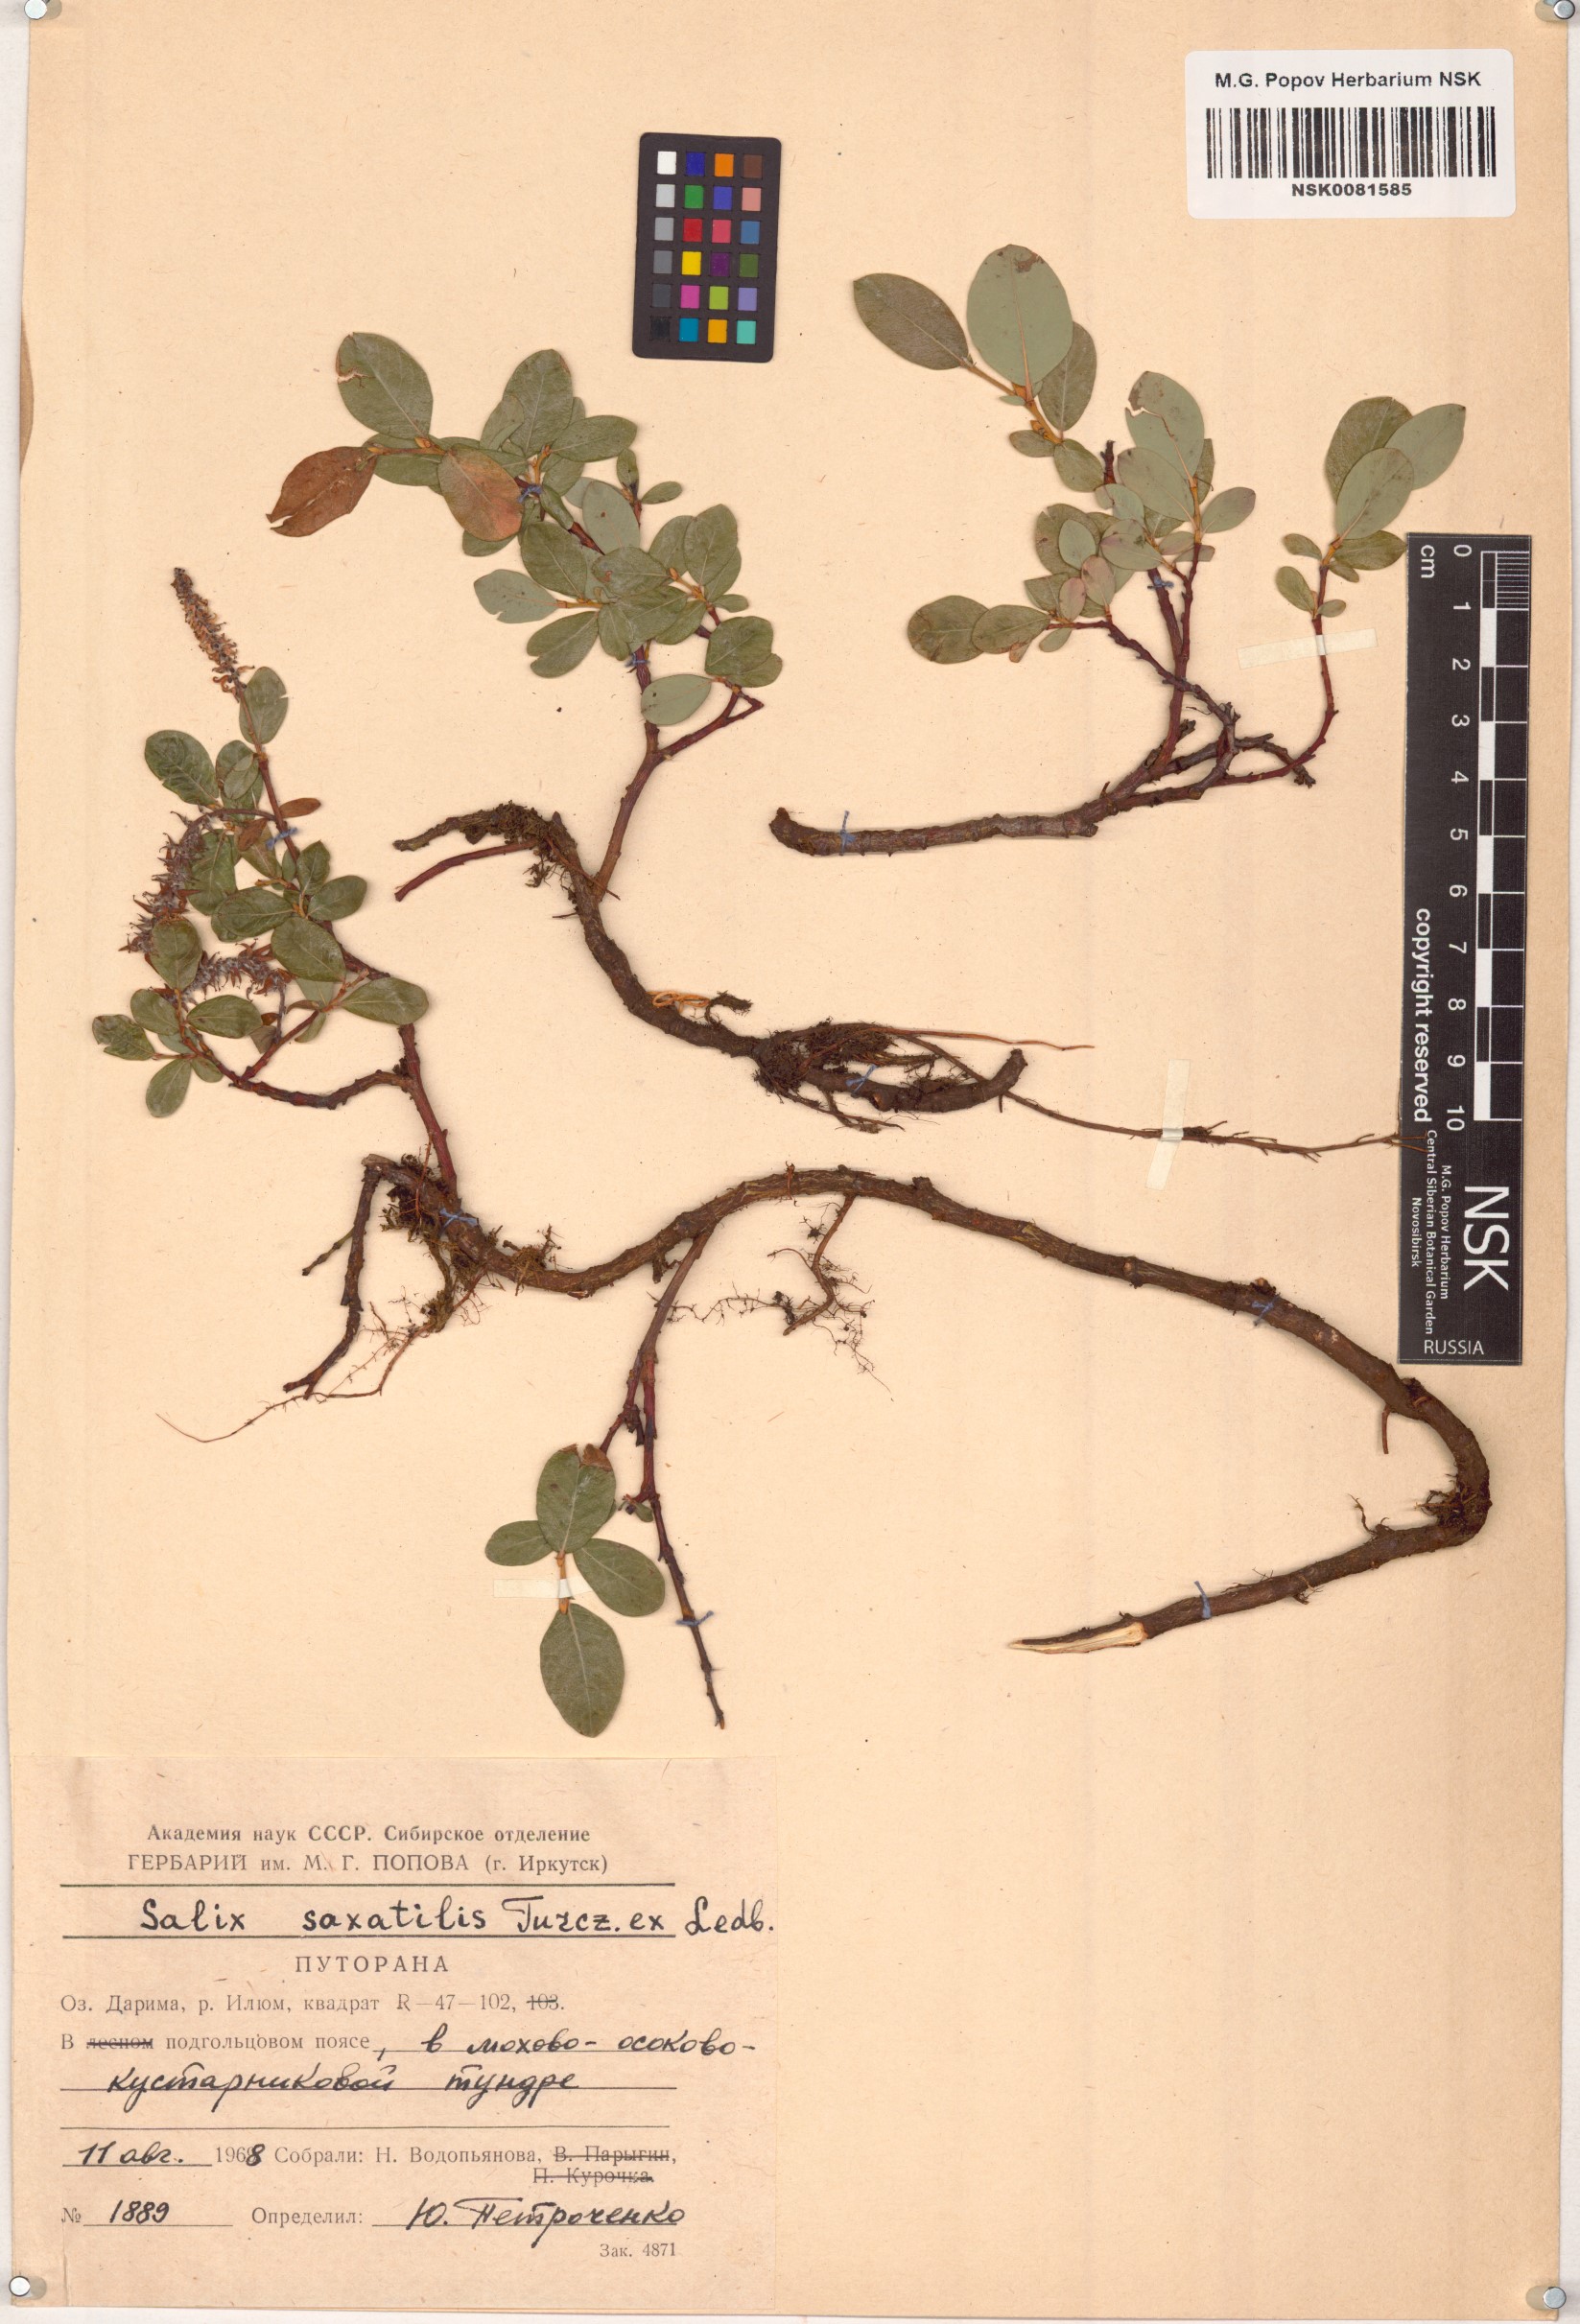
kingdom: Plantae
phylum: Tracheophyta
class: Magnoliopsida
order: Malpighiales
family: Salicaceae
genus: Salix
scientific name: Salix saxatilis
